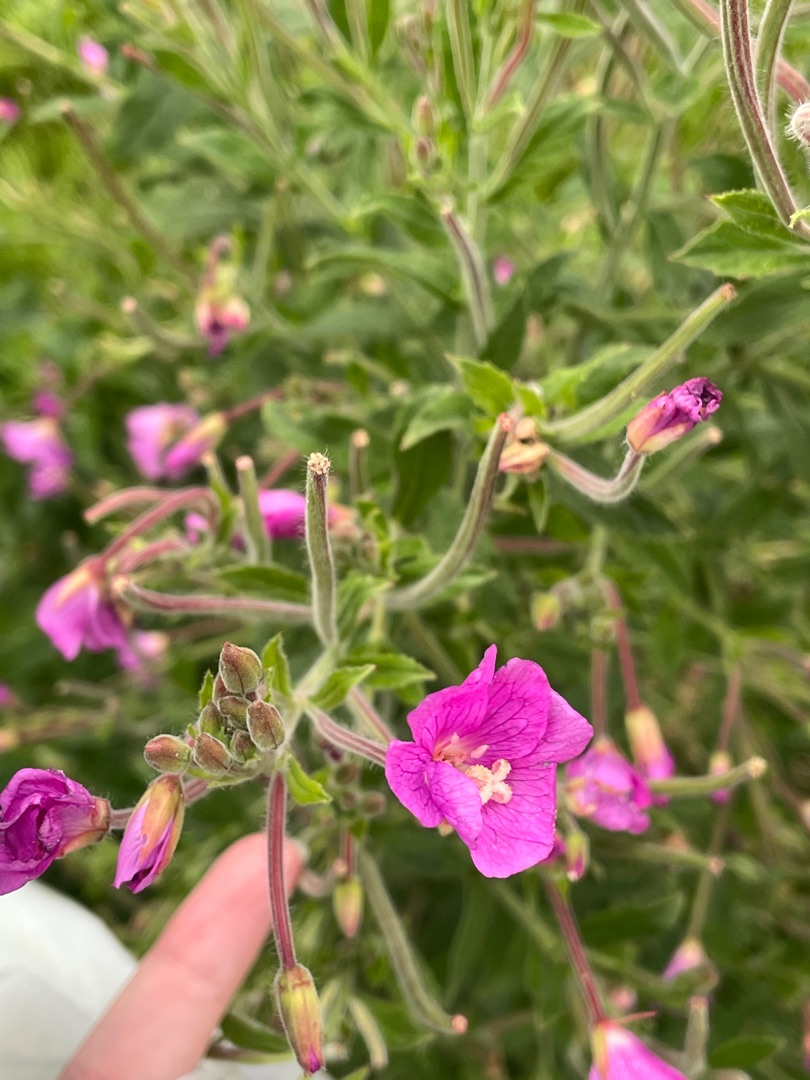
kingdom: Plantae
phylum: Tracheophyta
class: Magnoliopsida
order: Myrtales
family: Onagraceae
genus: Epilobium
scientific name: Epilobium hirsutum
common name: Lådden dueurt
